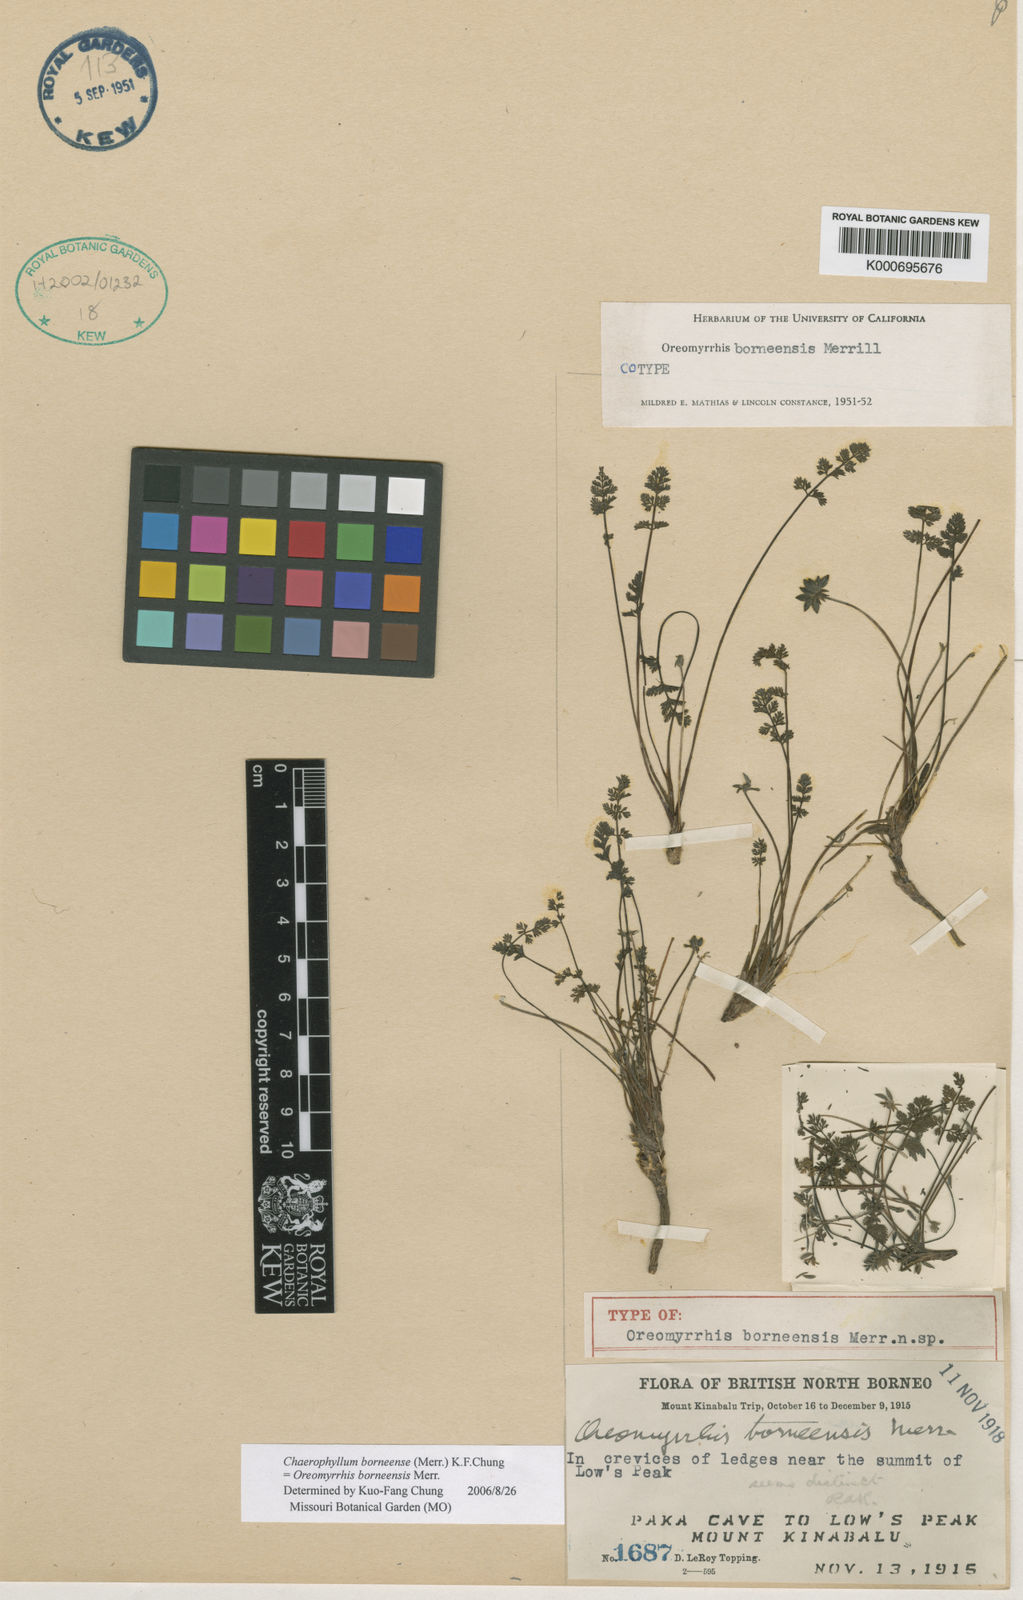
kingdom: Plantae
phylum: Tracheophyta
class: Magnoliopsida
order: Apiales
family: Apiaceae
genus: Chaerophyllum
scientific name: Chaerophyllum andicola
